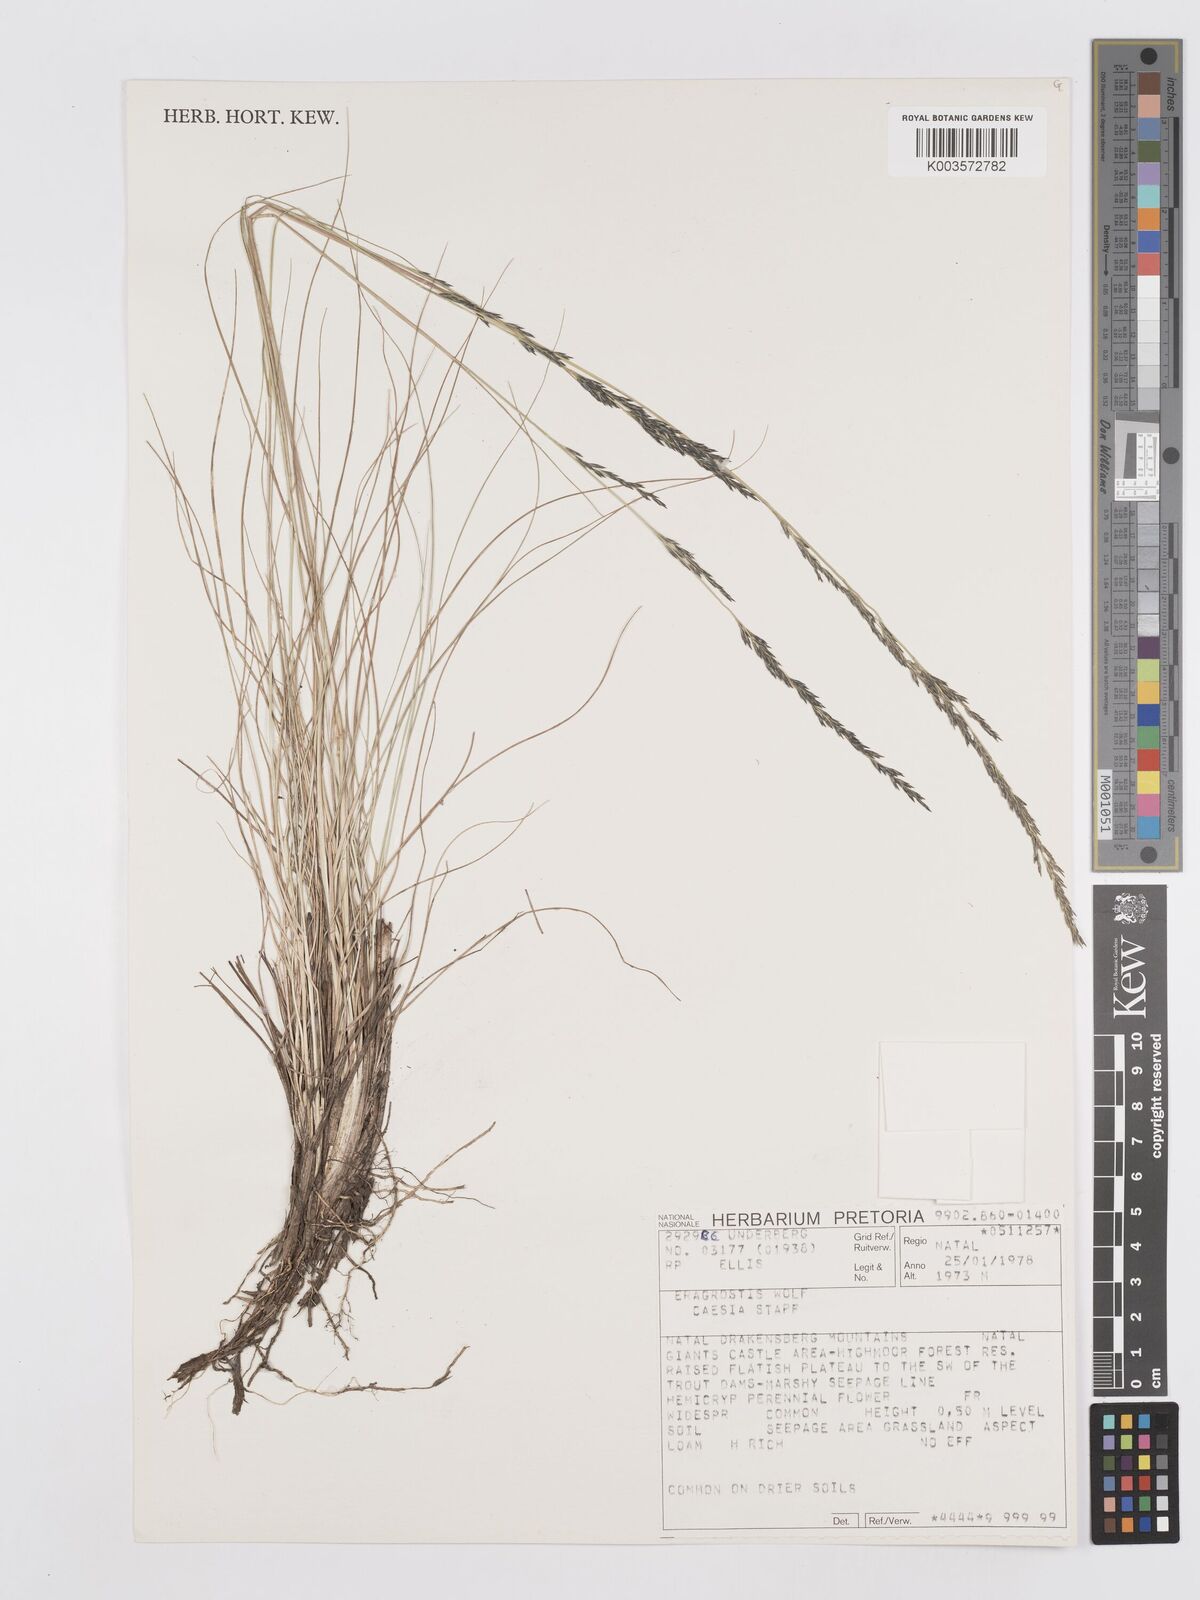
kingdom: Plantae
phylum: Tracheophyta
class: Liliopsida
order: Poales
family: Poaceae
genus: Eragrostis
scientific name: Eragrostis caesia
